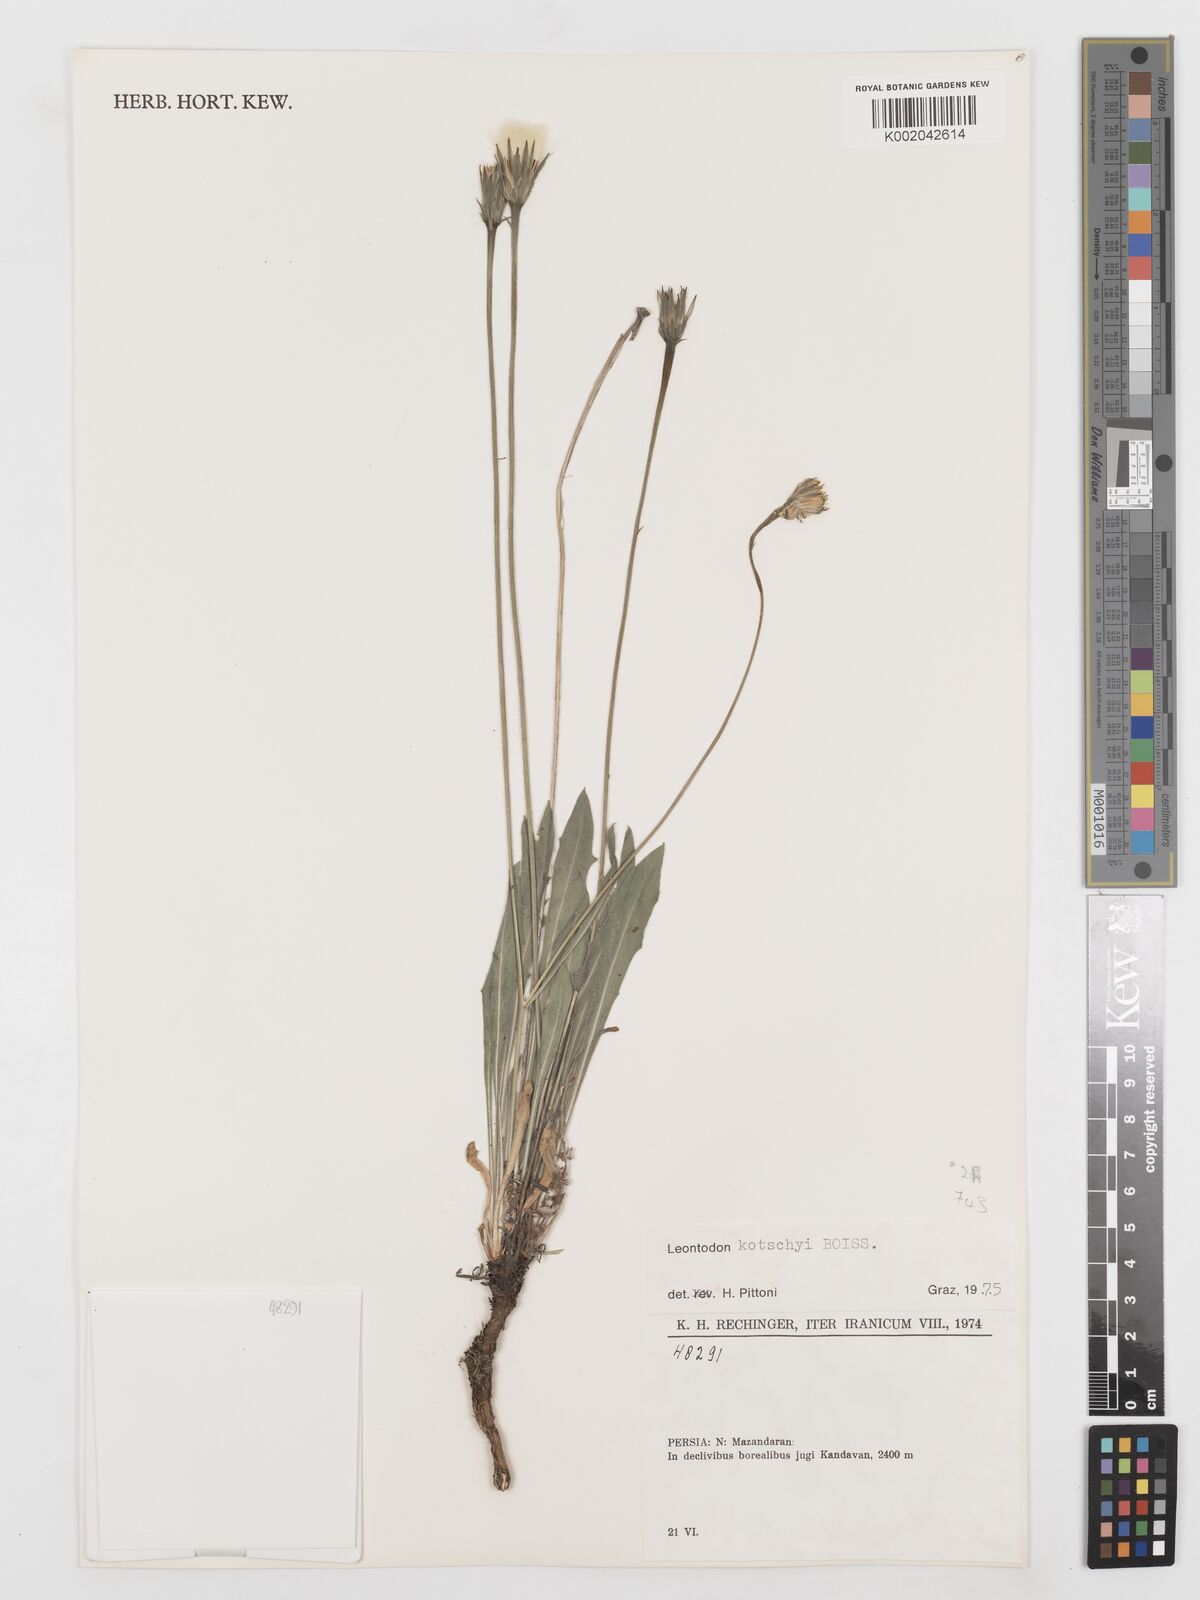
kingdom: Plantae
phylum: Tracheophyta
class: Magnoliopsida
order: Asterales
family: Asteraceae
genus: Leontodon
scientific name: Leontodon
